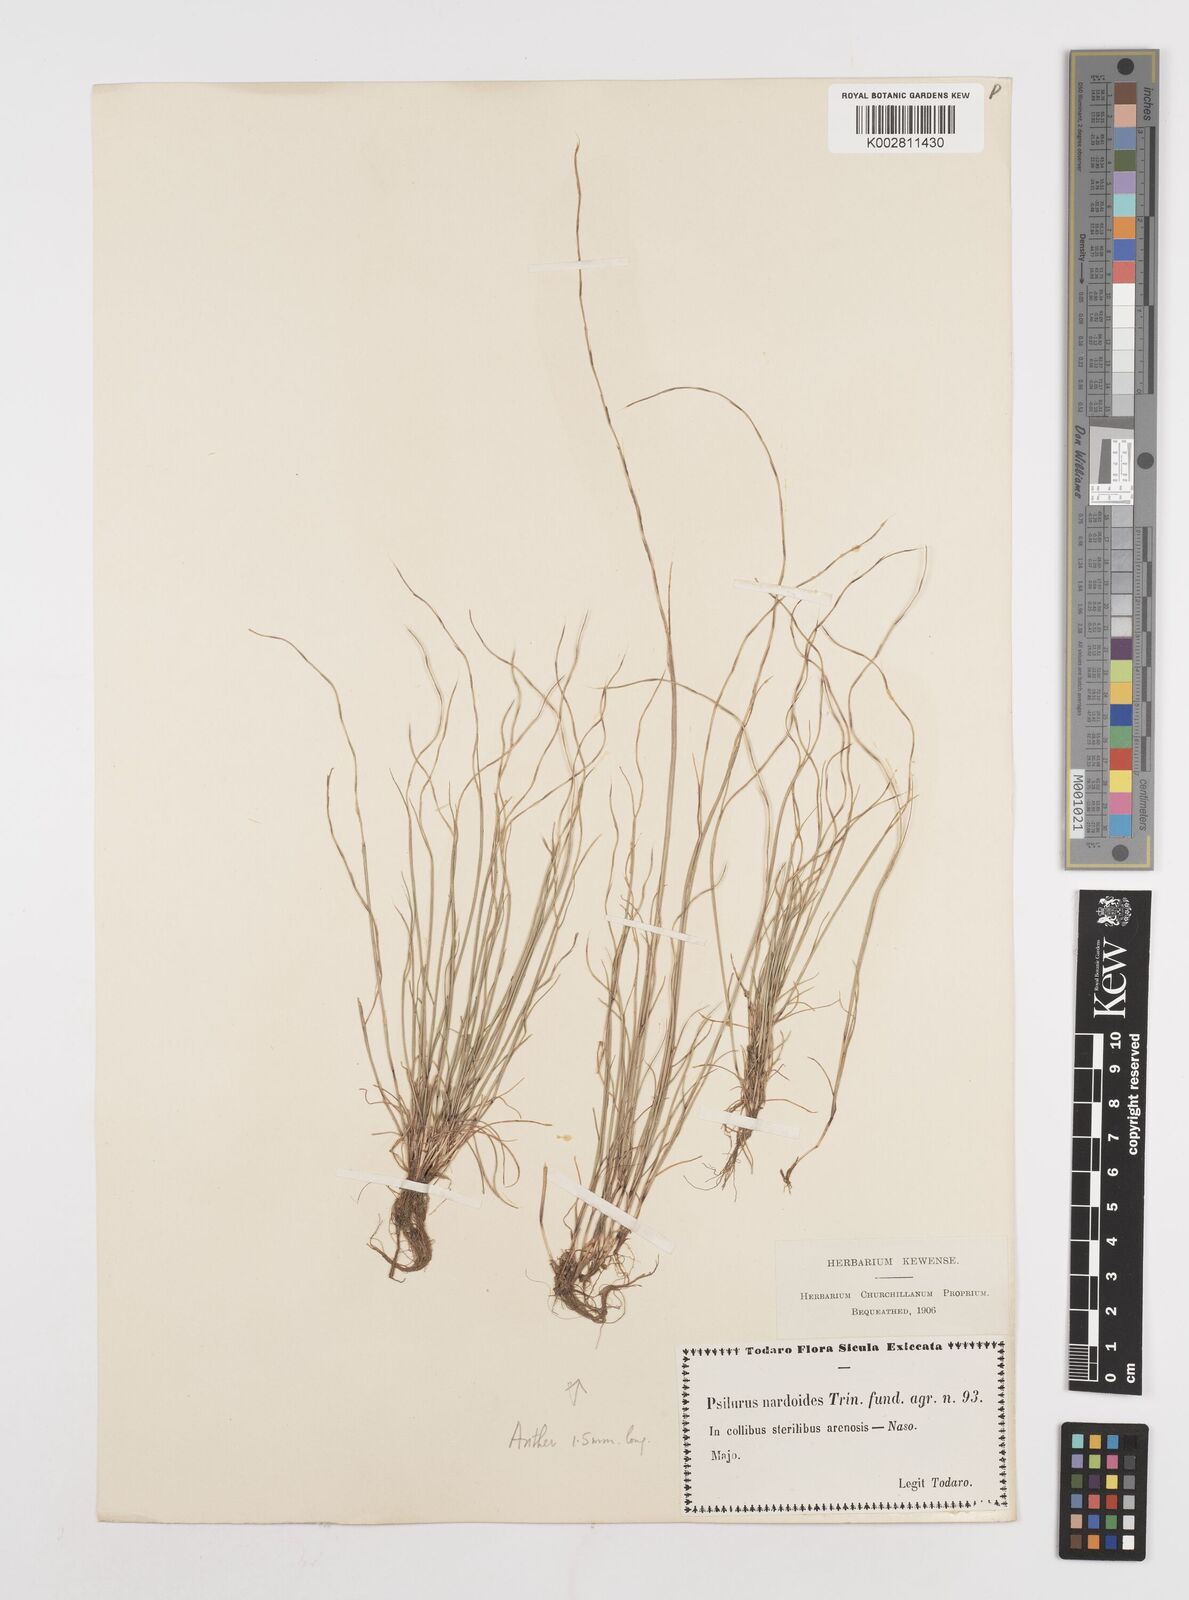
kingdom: Plantae
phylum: Tracheophyta
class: Liliopsida
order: Poales
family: Poaceae
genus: Festuca
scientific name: Festuca incurva
